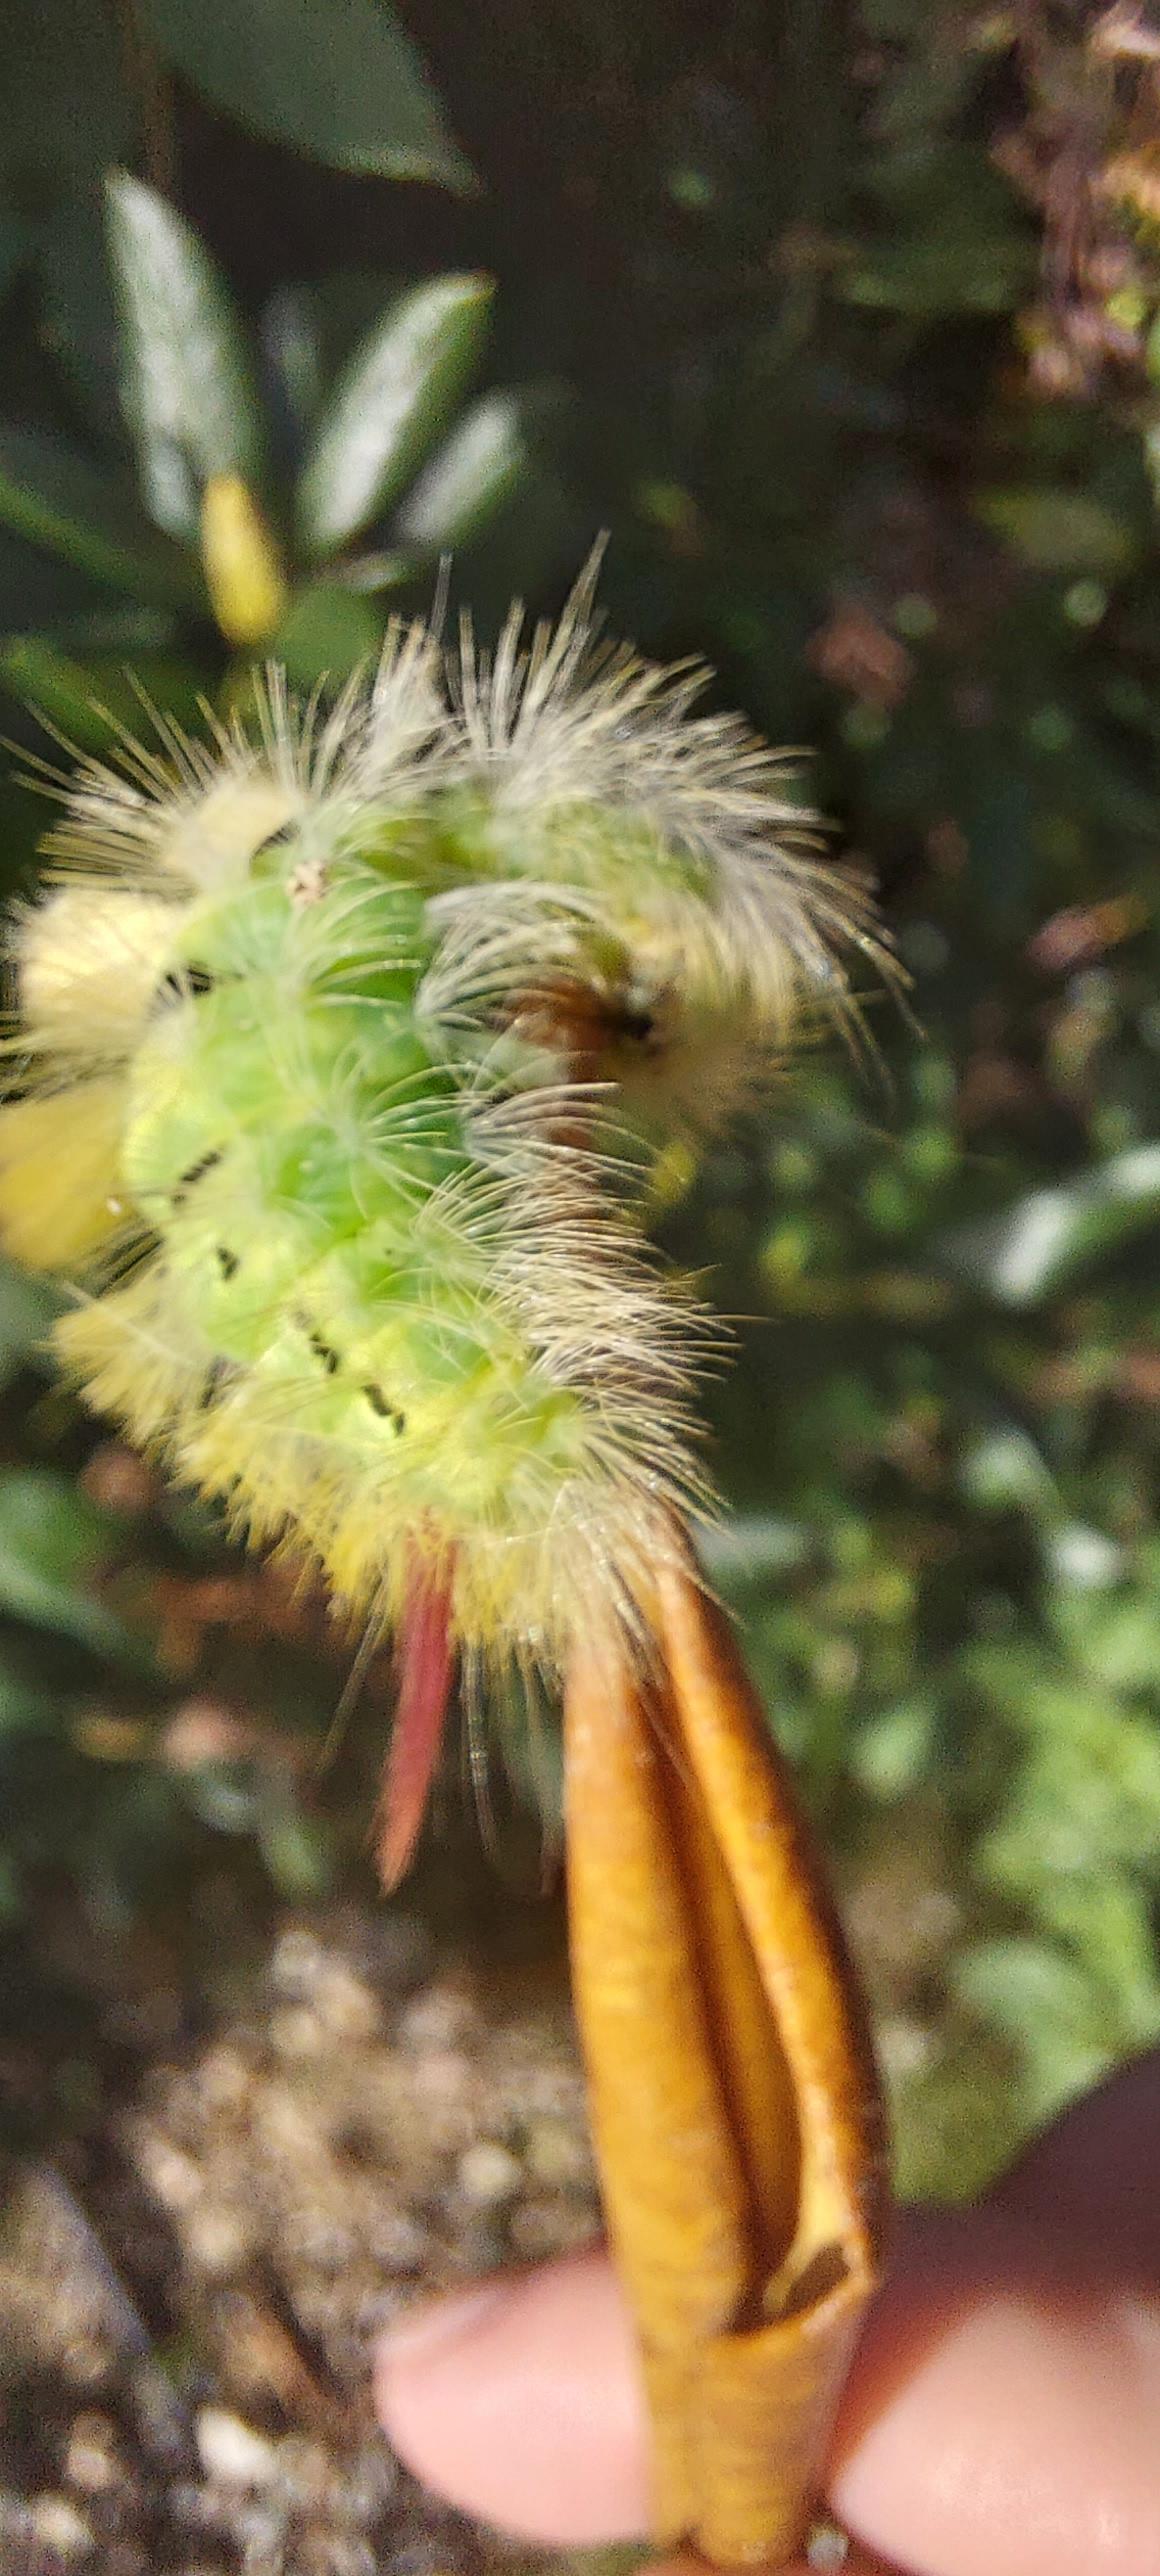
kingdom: Animalia
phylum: Arthropoda
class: Insecta
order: Lepidoptera
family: Erebidae
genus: Calliteara
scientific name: Calliteara pudibunda
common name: Bøgenonne
